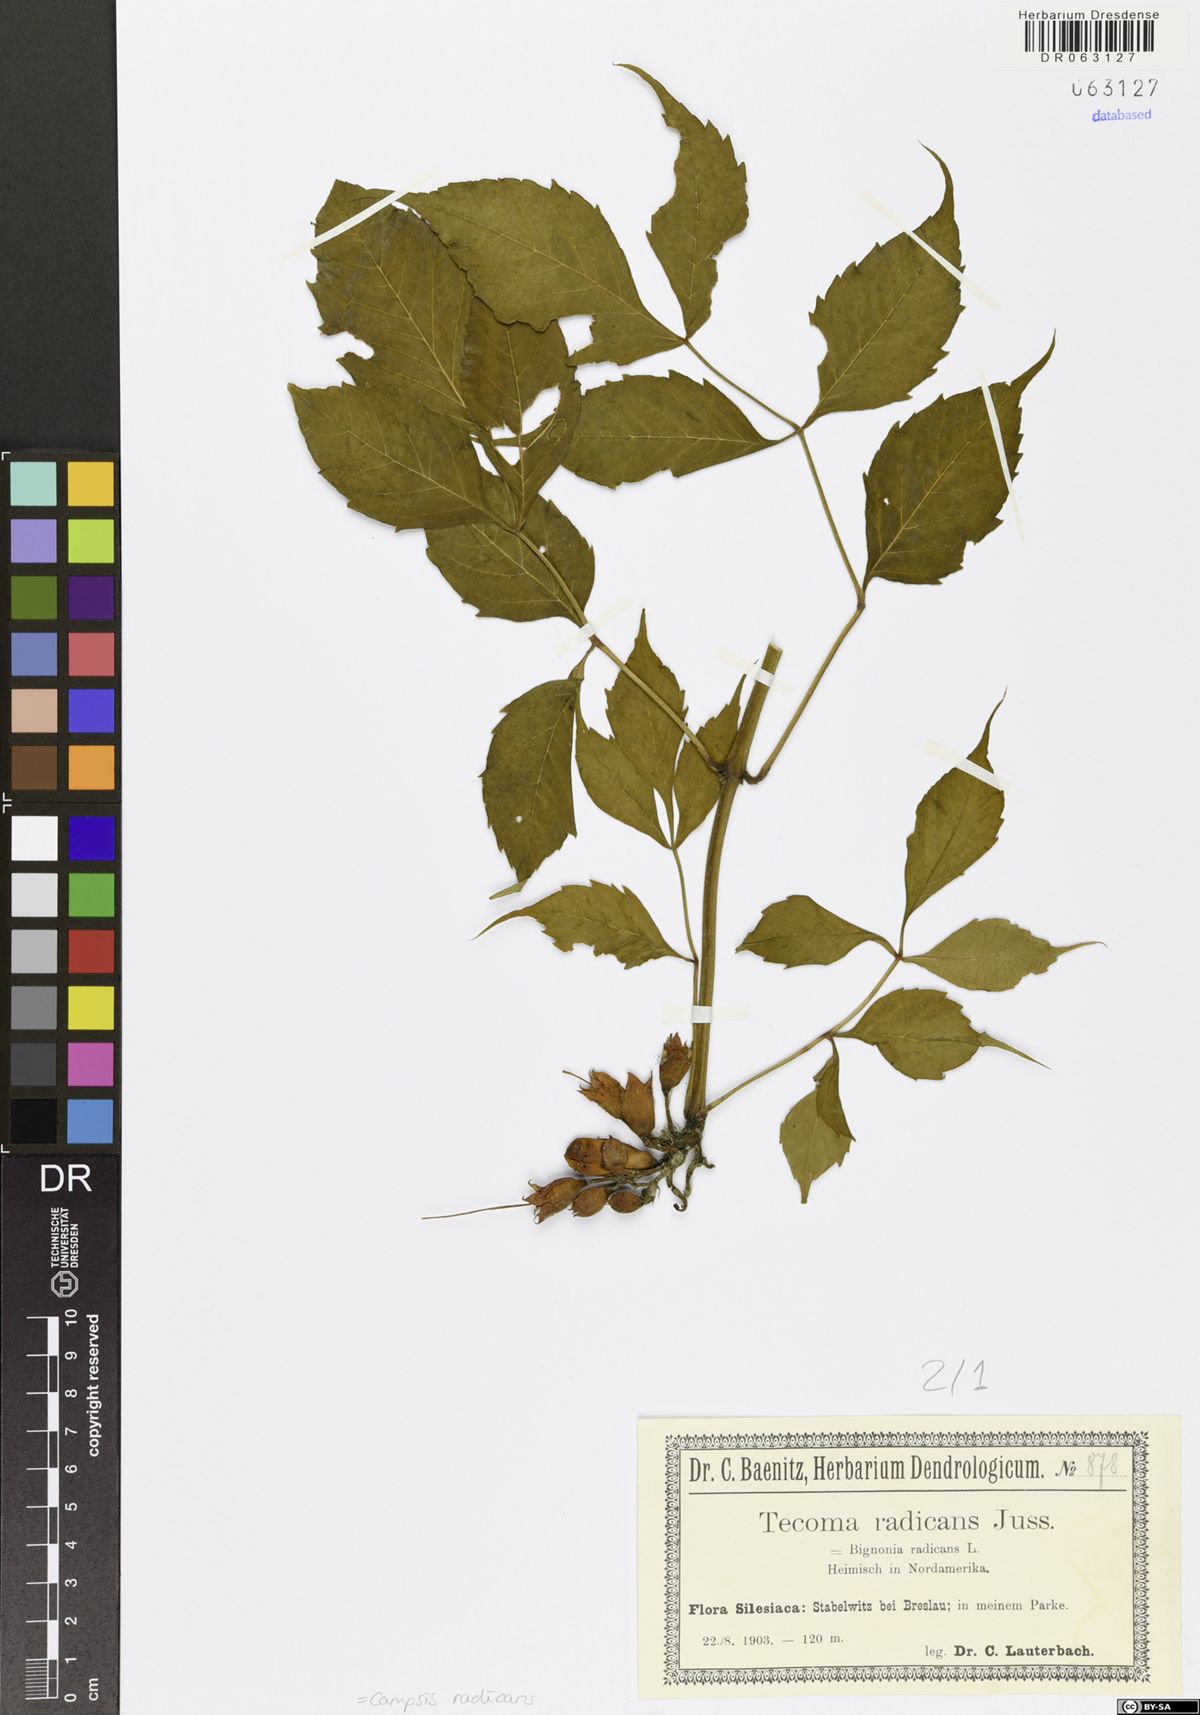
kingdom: Plantae
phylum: Tracheophyta
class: Magnoliopsida
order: Lamiales
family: Bignoniaceae
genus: Campsis
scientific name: Campsis radicans
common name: Trumpet-creeper
